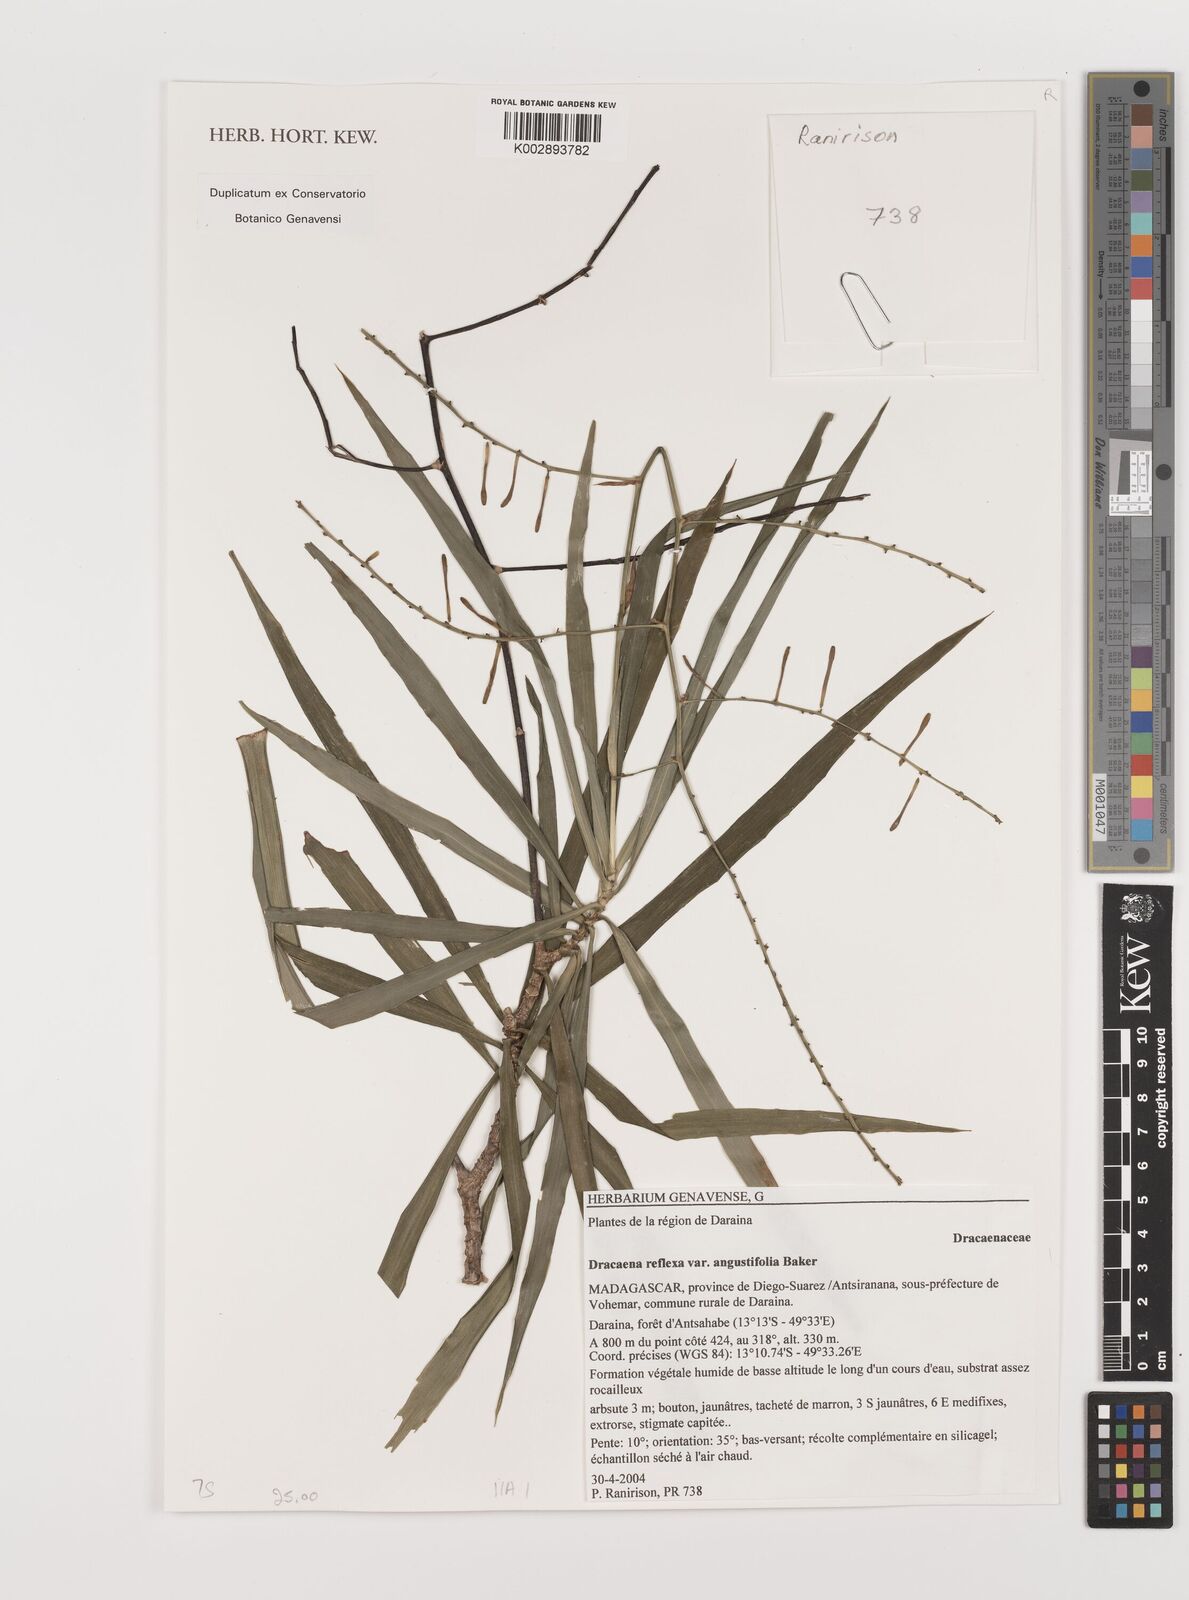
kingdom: Plantae
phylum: Tracheophyta
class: Liliopsida
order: Asparagales
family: Asparagaceae
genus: Dracaena
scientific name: Dracaena reflexa
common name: Song-of-india
